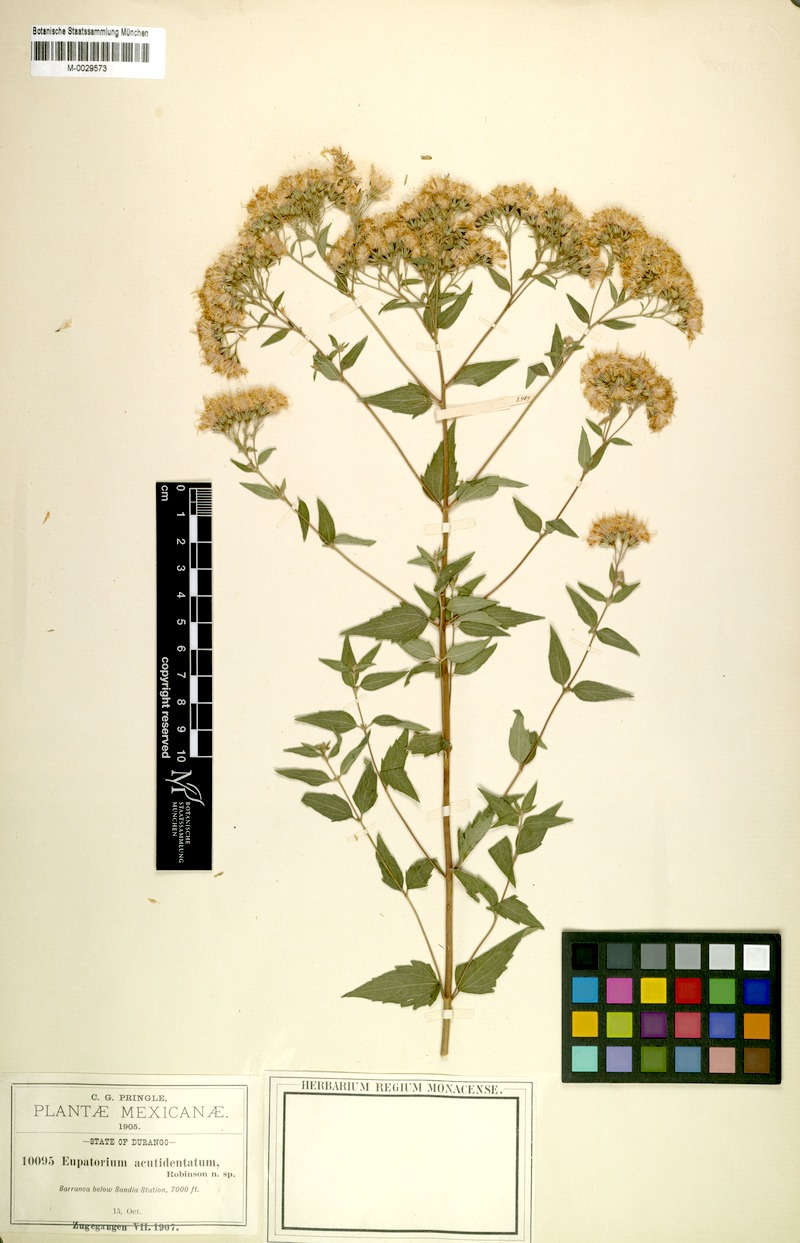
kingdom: Plantae
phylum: Tracheophyta
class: Magnoliopsida
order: Asterales
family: Asteraceae
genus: Ageratina
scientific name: Ageratina venulosa
